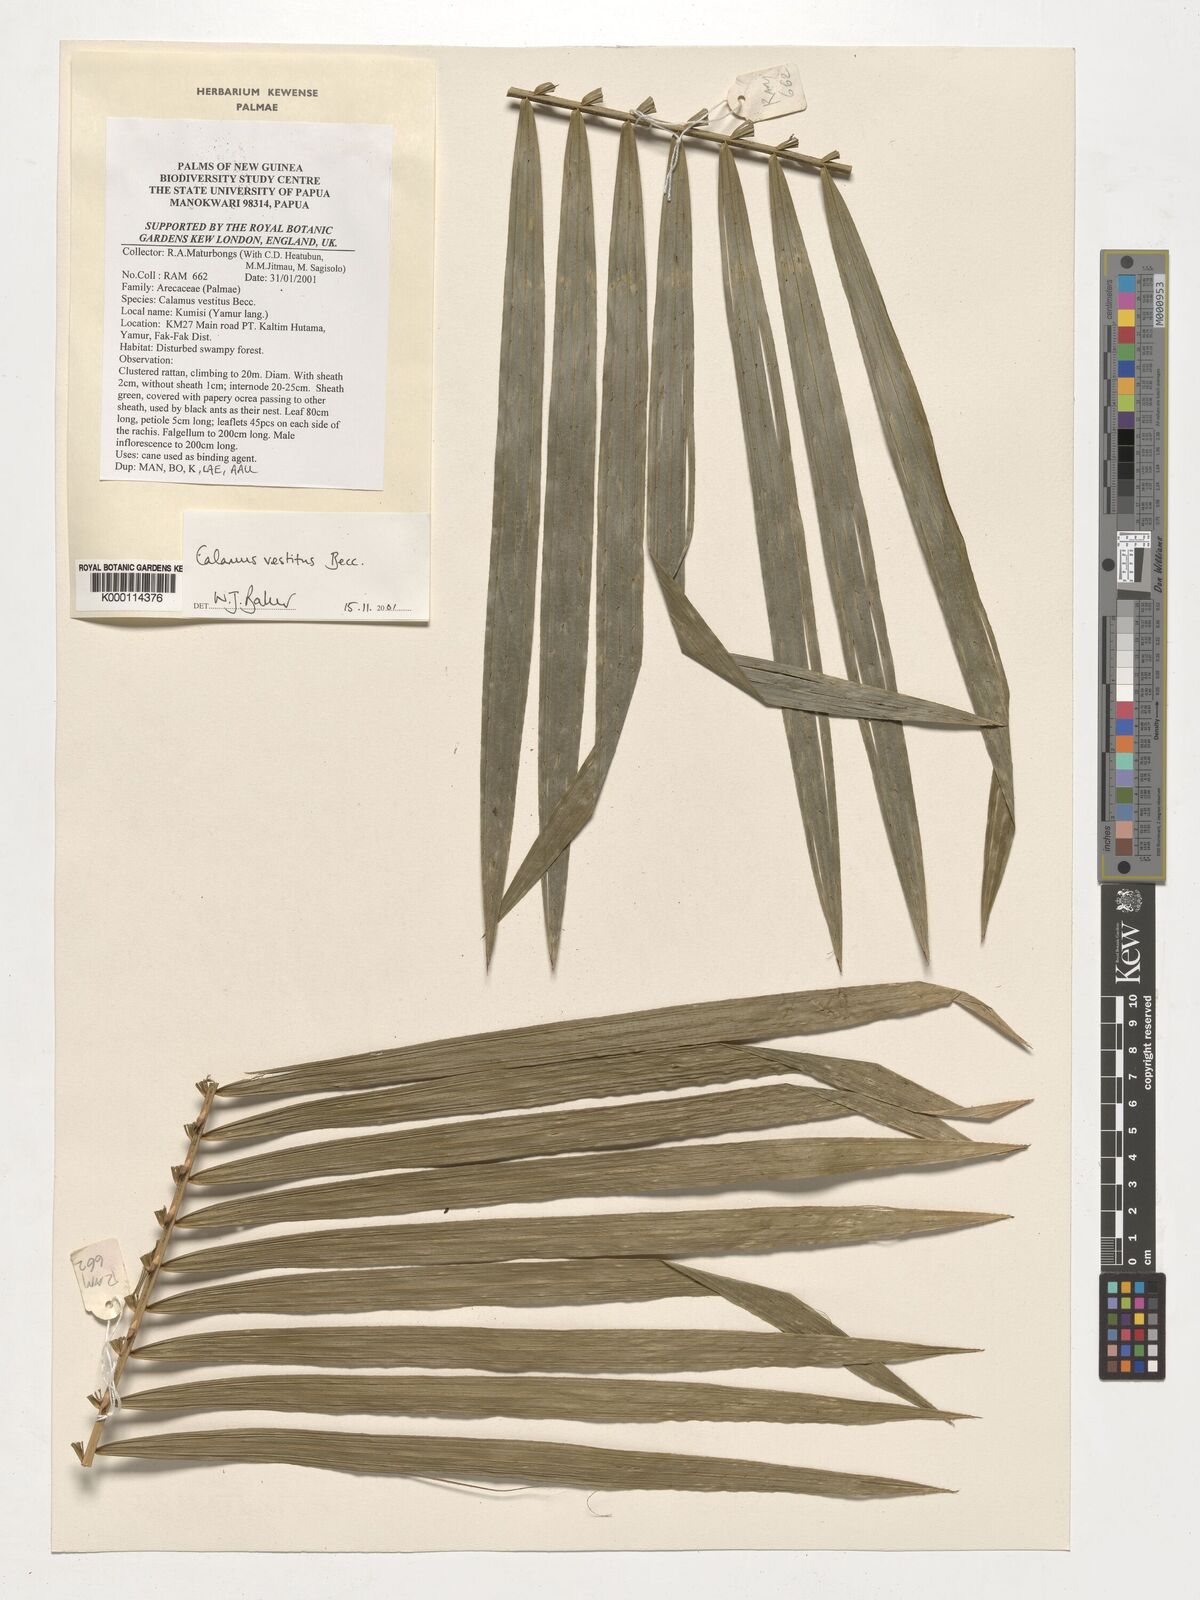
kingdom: Plantae
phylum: Tracheophyta
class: Liliopsida
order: Arecales
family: Arecaceae
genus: Calamus
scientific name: Calamus vestitus
